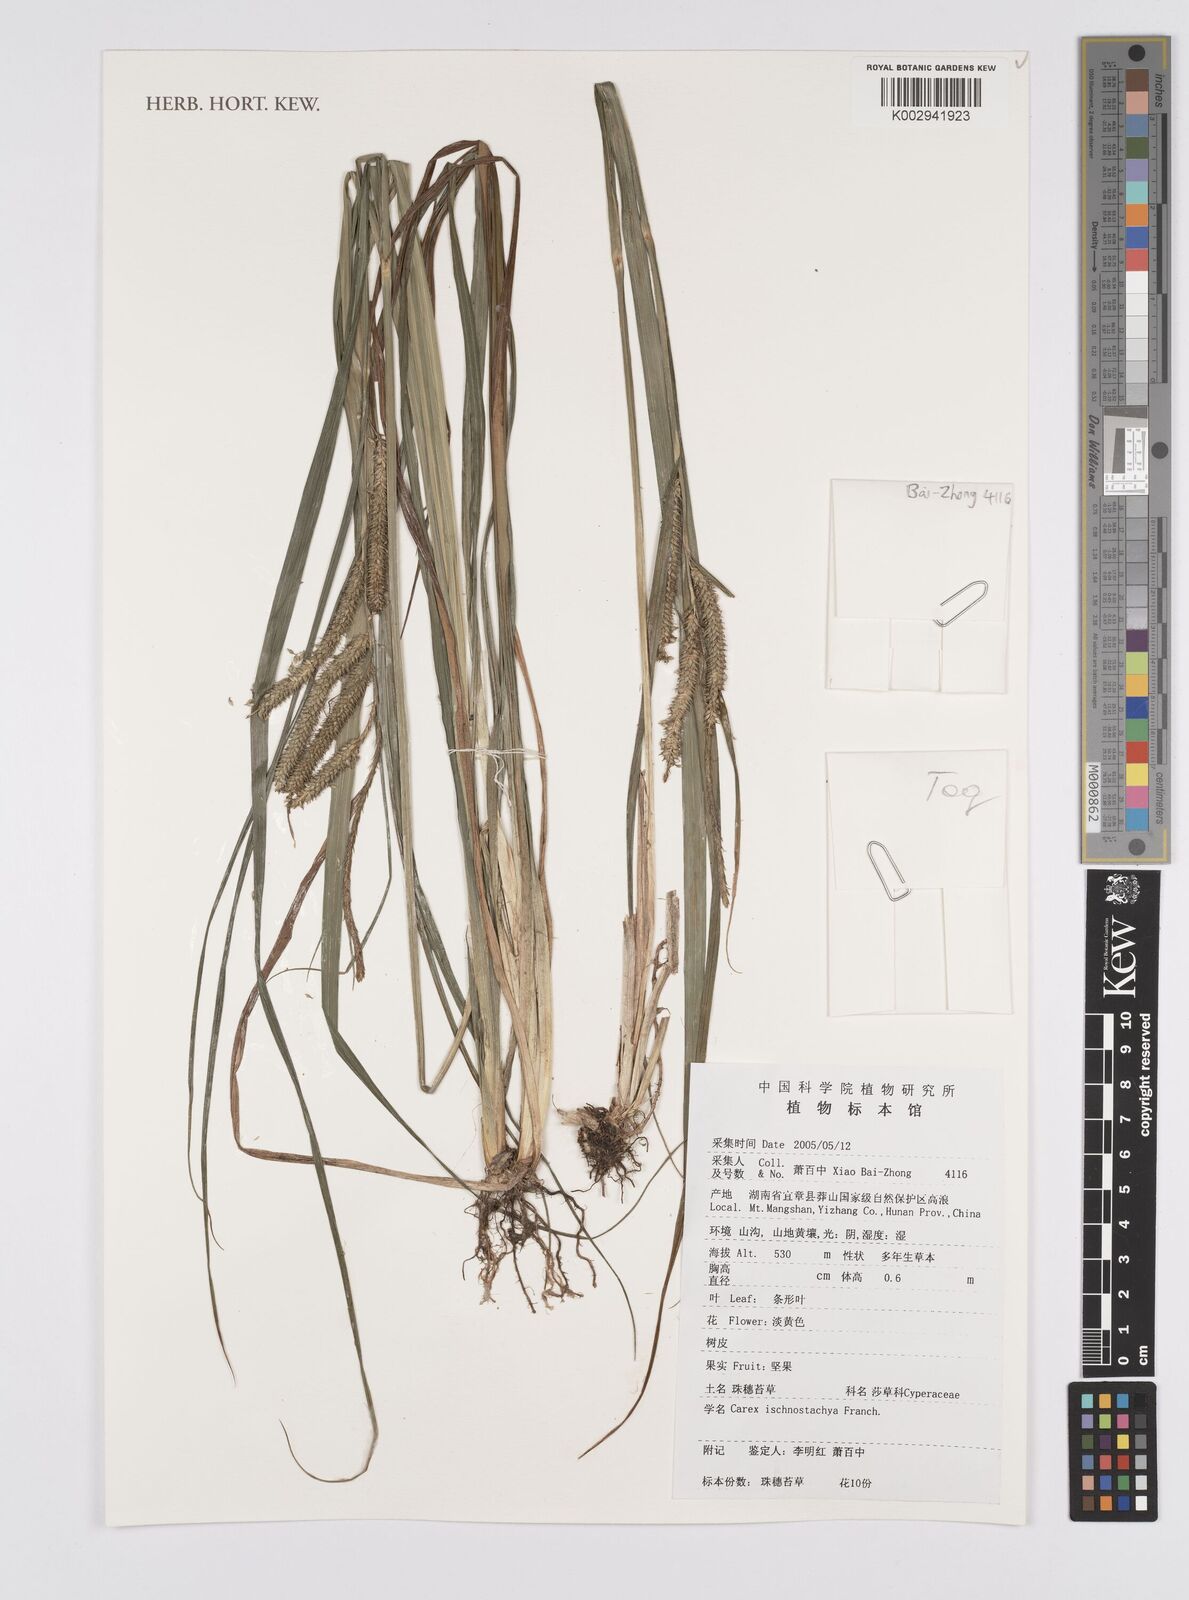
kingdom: Plantae
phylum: Tracheophyta
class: Liliopsida
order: Poales
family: Cyperaceae
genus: Carex
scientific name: Carex ischnostachya
